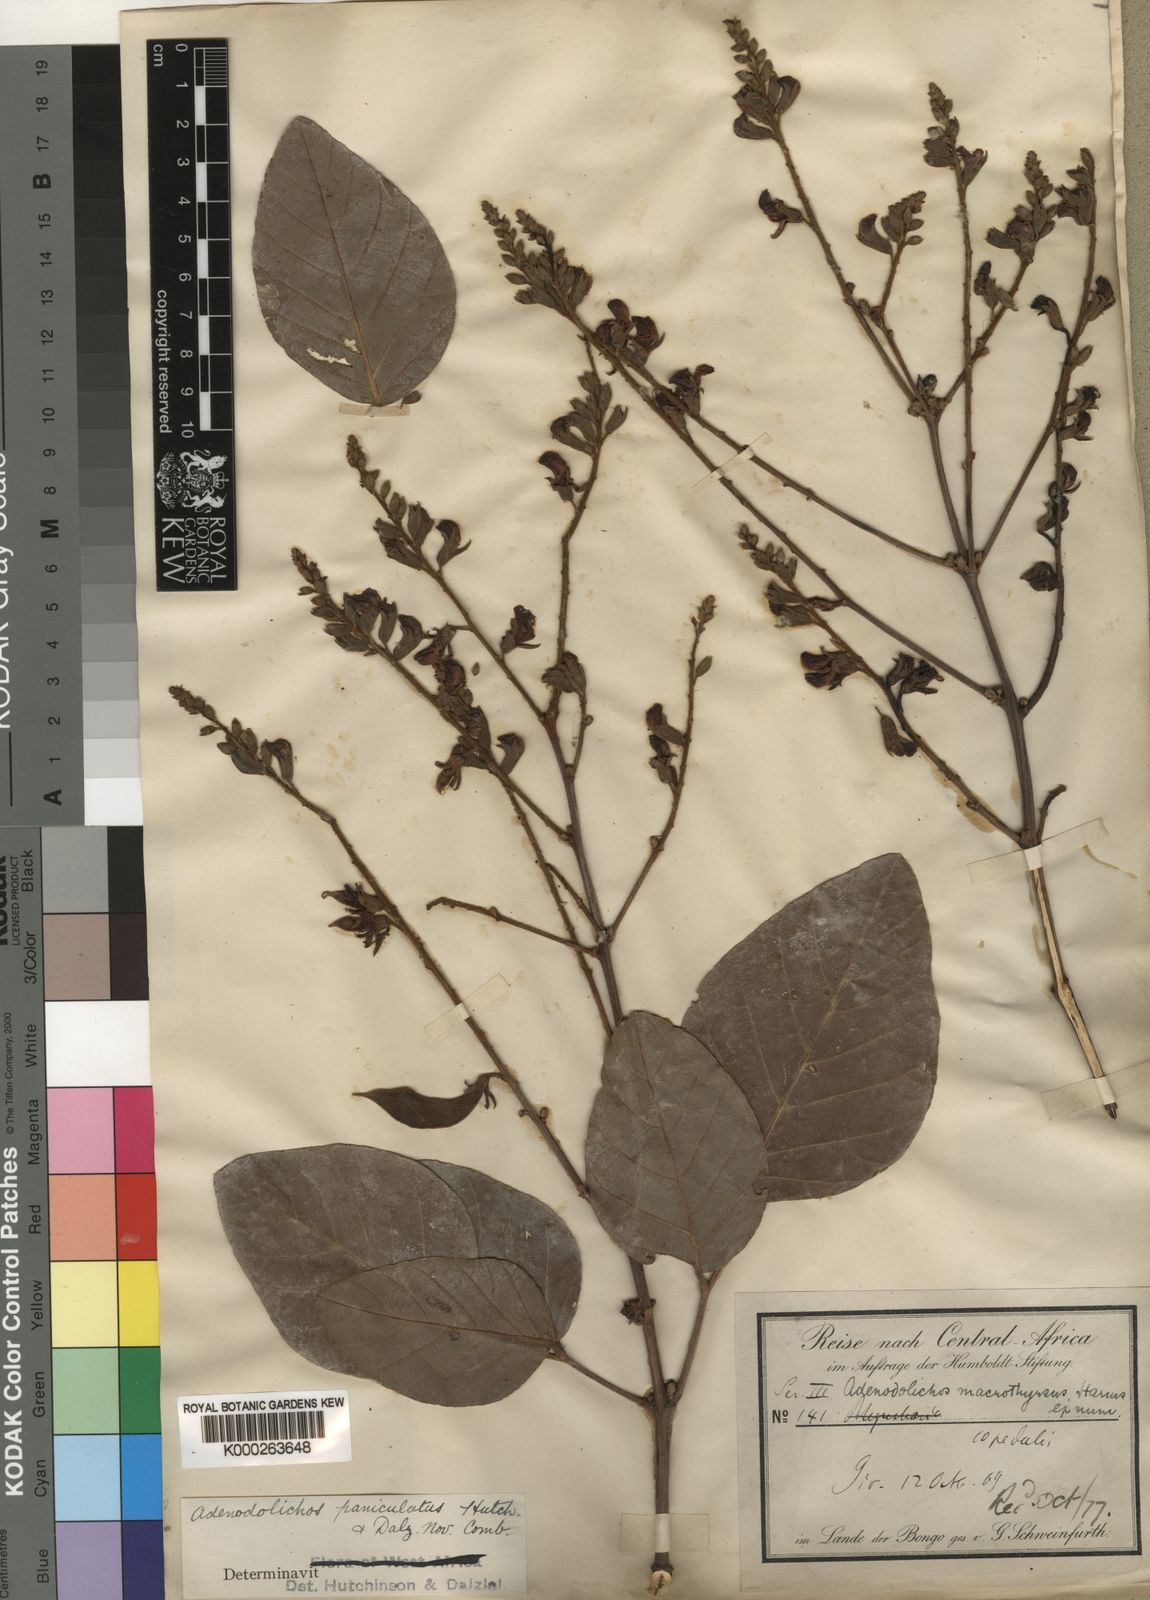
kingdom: Plantae
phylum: Tracheophyta
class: Magnoliopsida
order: Fabales
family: Fabaceae
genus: Adenodolichos
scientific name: Adenodolichos paniculatus
